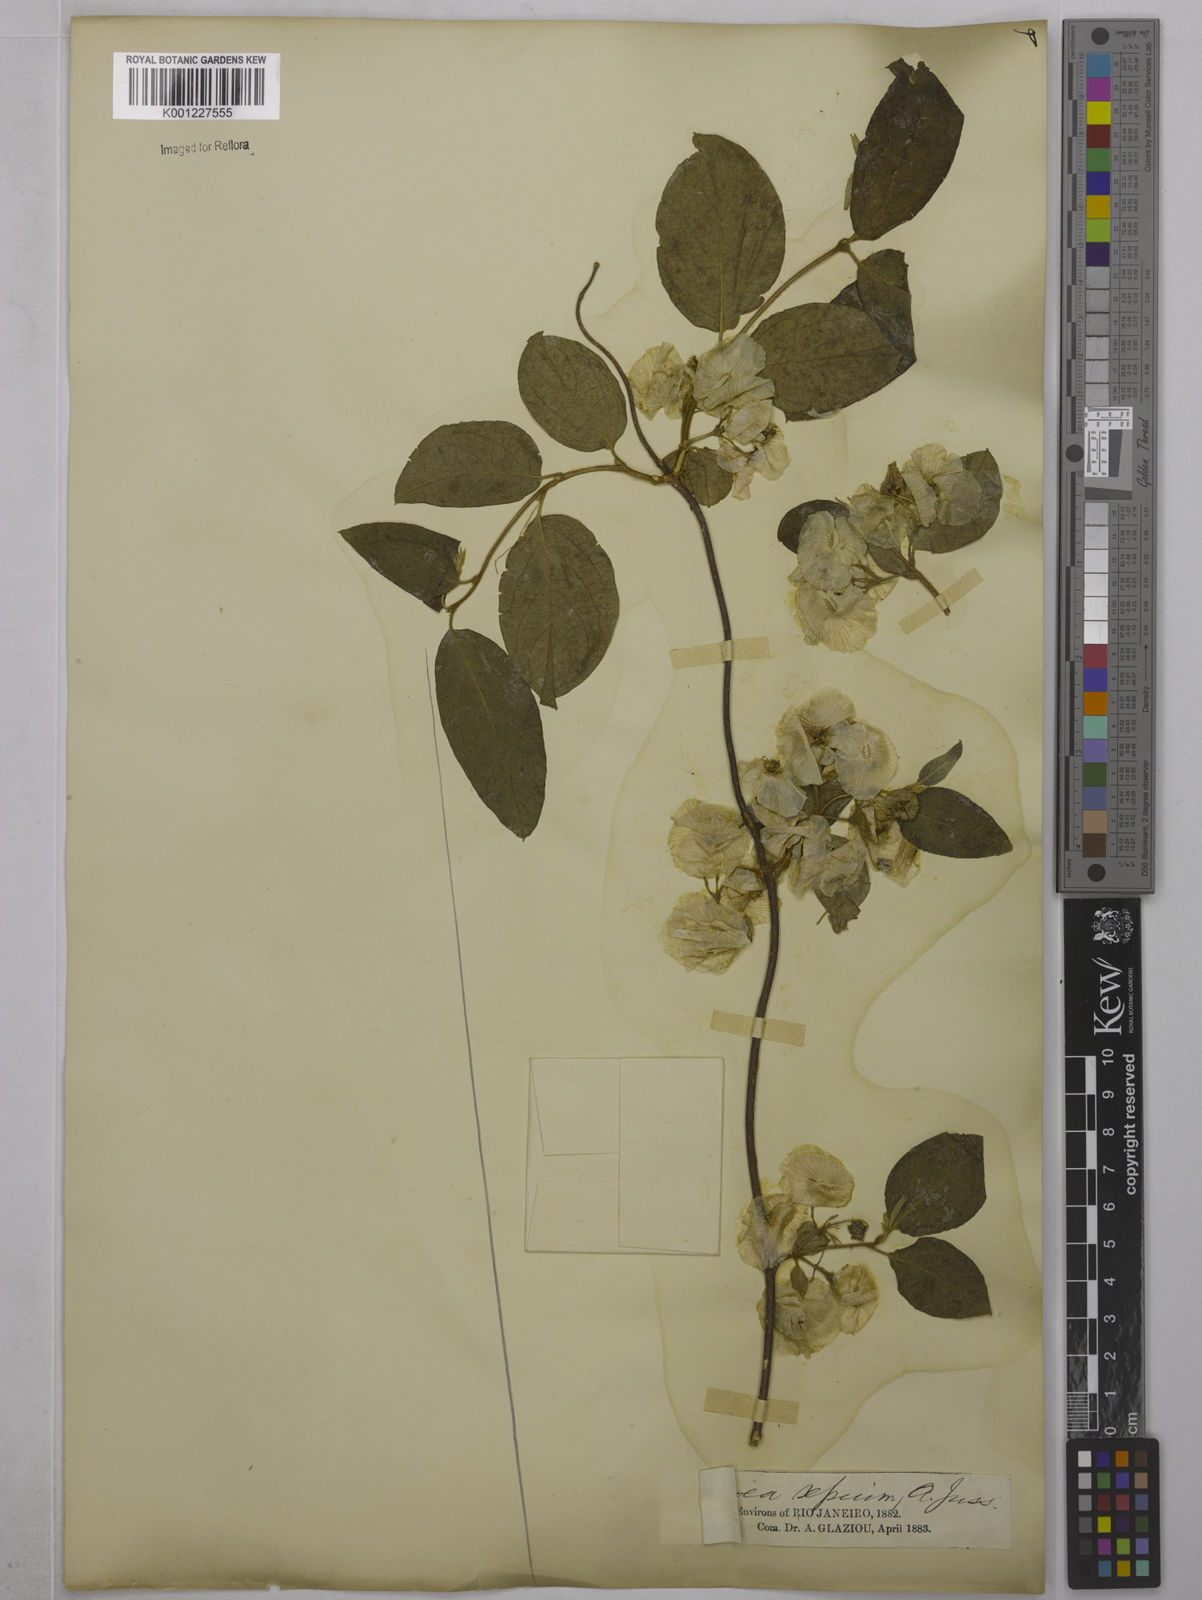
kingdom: Plantae
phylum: Tracheophyta
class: Magnoliopsida
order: Malpighiales
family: Malpighiaceae
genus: Mascagnia
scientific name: Mascagnia sepium
